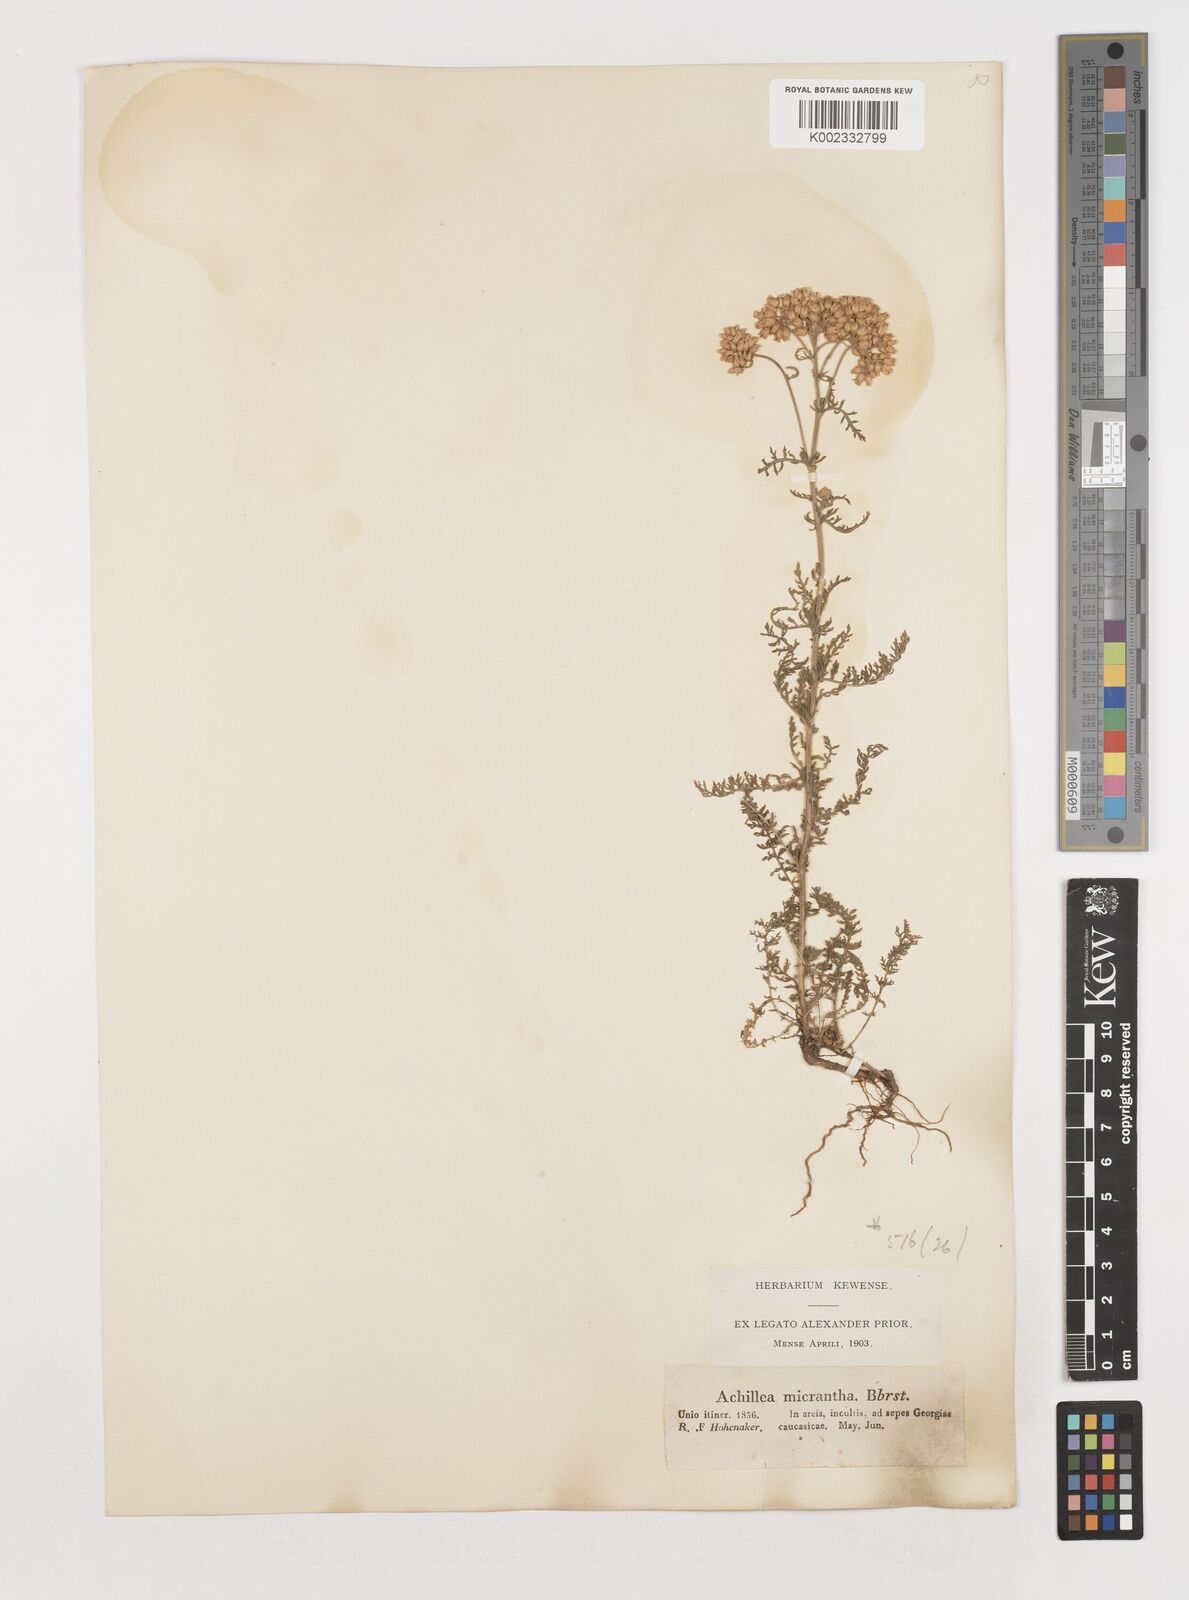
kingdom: Plantae
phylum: Tracheophyta
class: Magnoliopsida
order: Asterales
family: Asteraceae
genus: Achillea
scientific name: Achillea arabica
